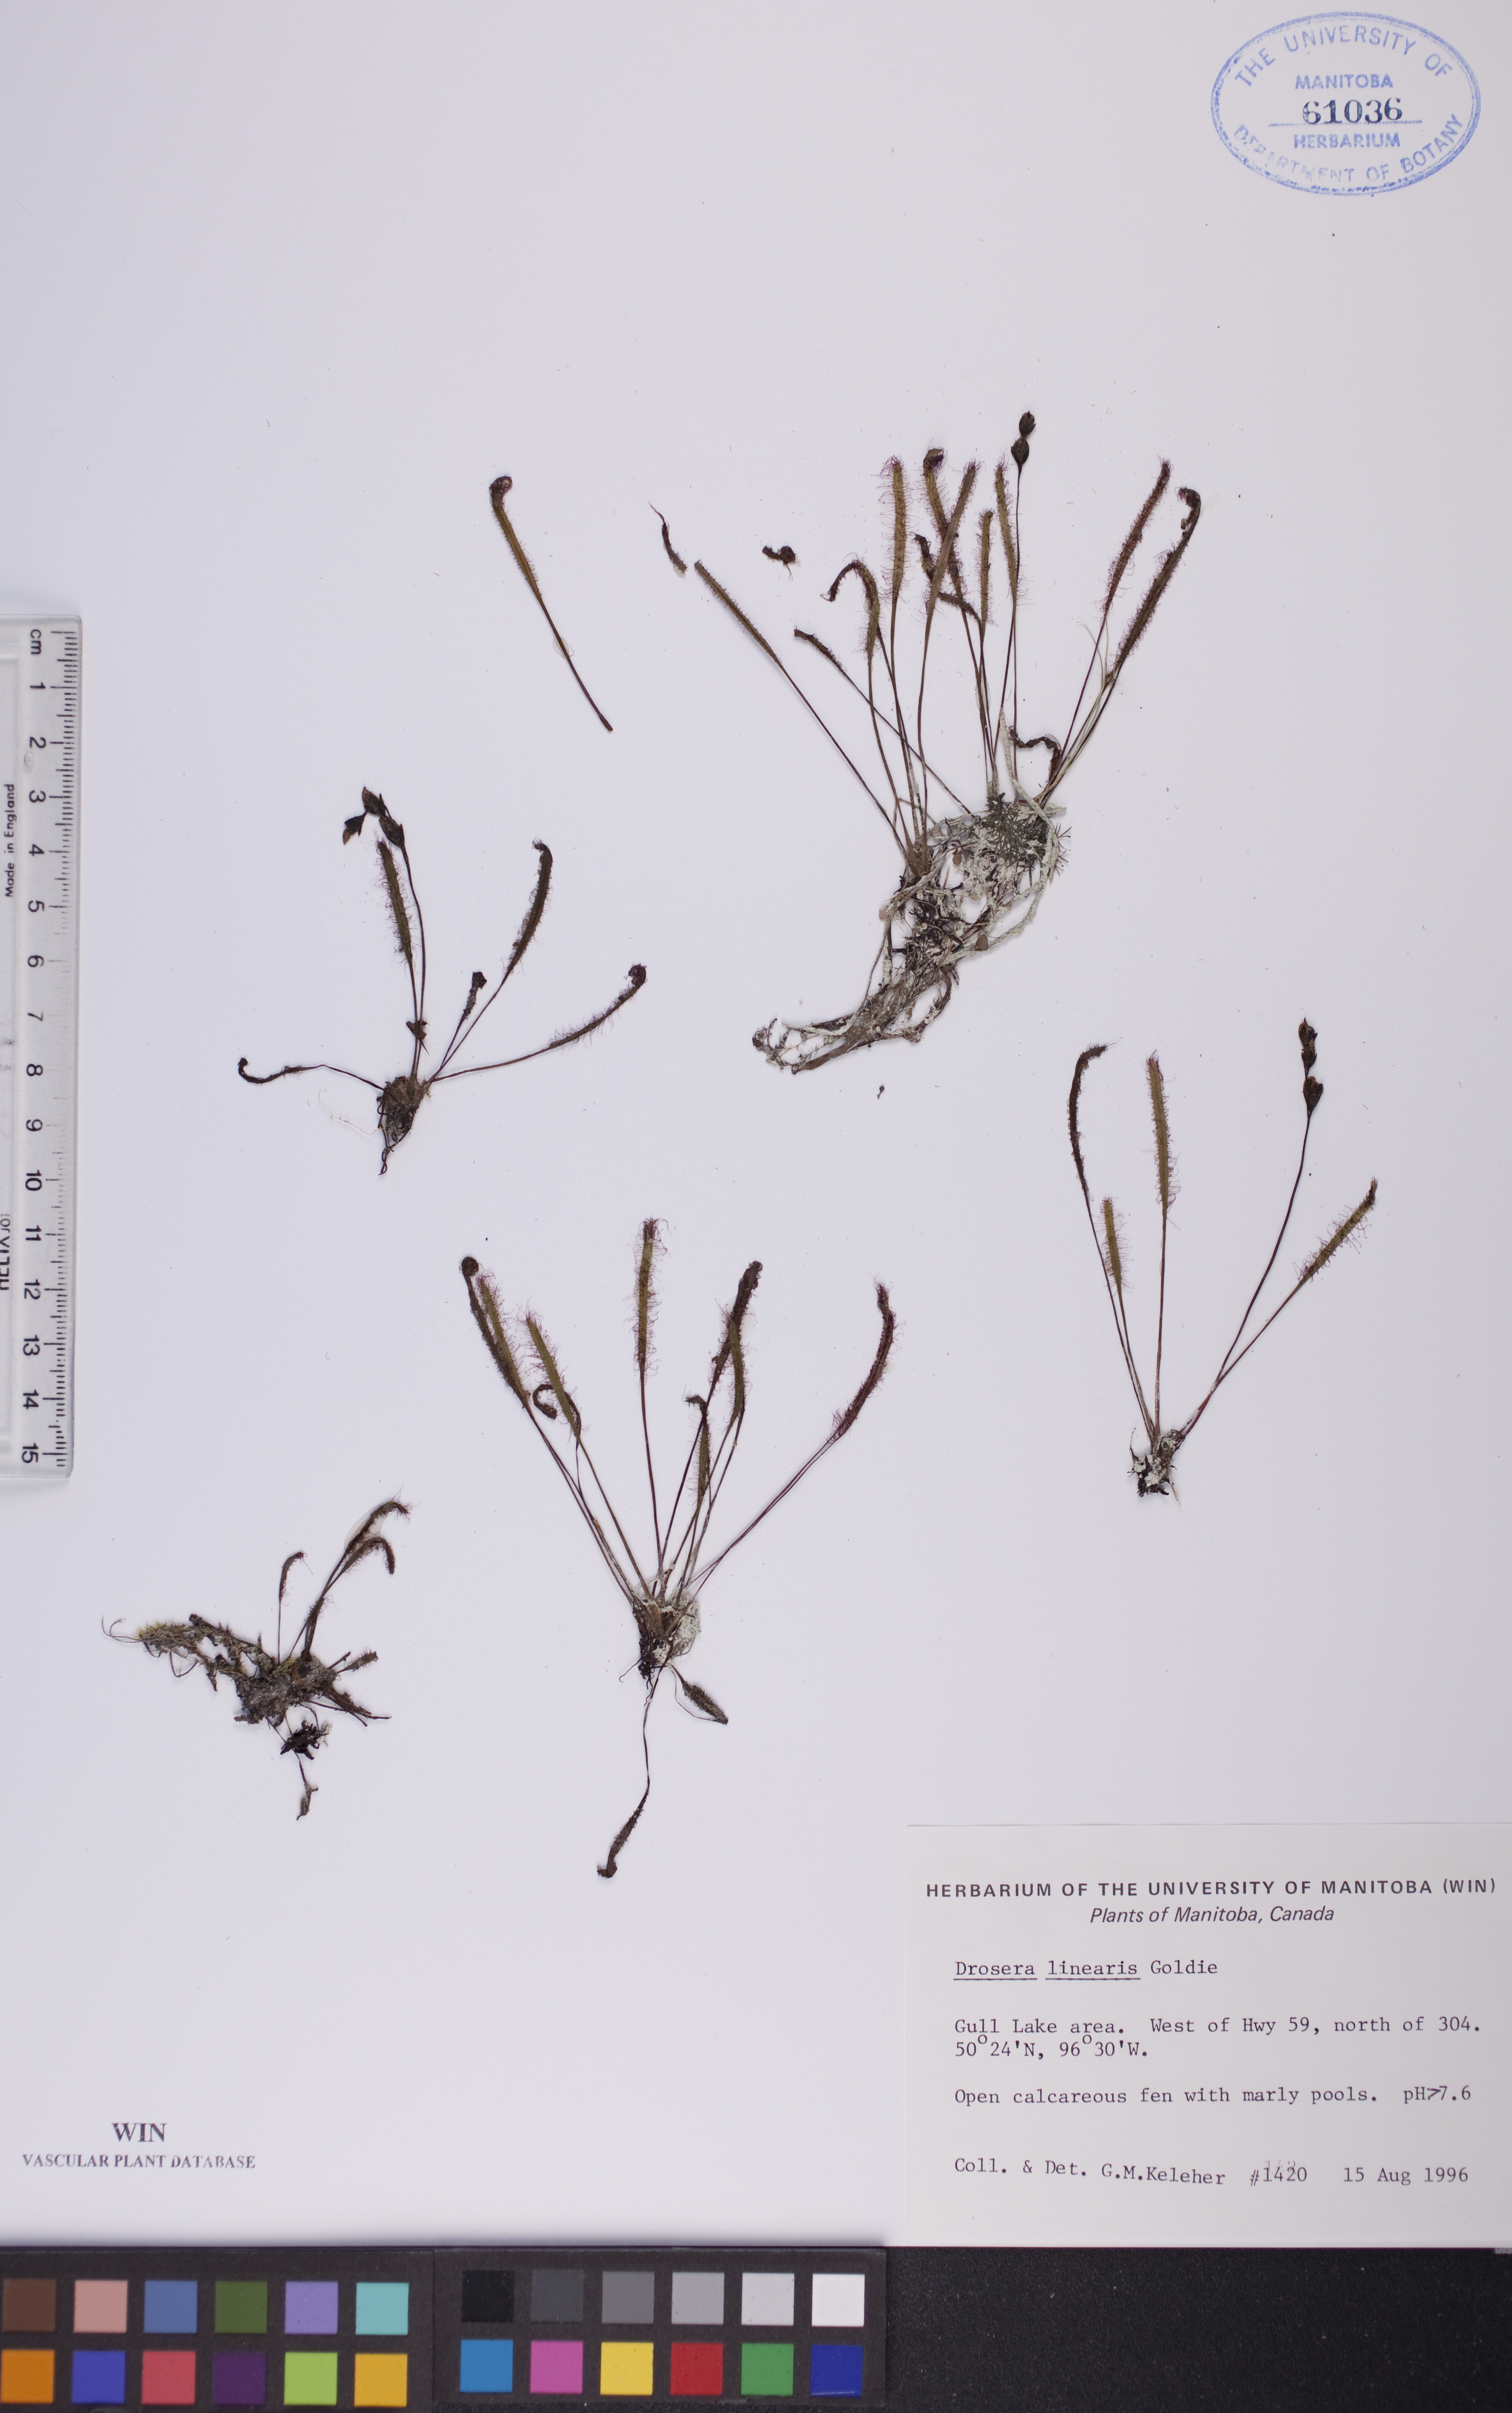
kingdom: Plantae
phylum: Tracheophyta
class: Magnoliopsida
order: Caryophyllales
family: Droseraceae
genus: Drosera
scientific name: Drosera linearis
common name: Linear-leaved sundew
